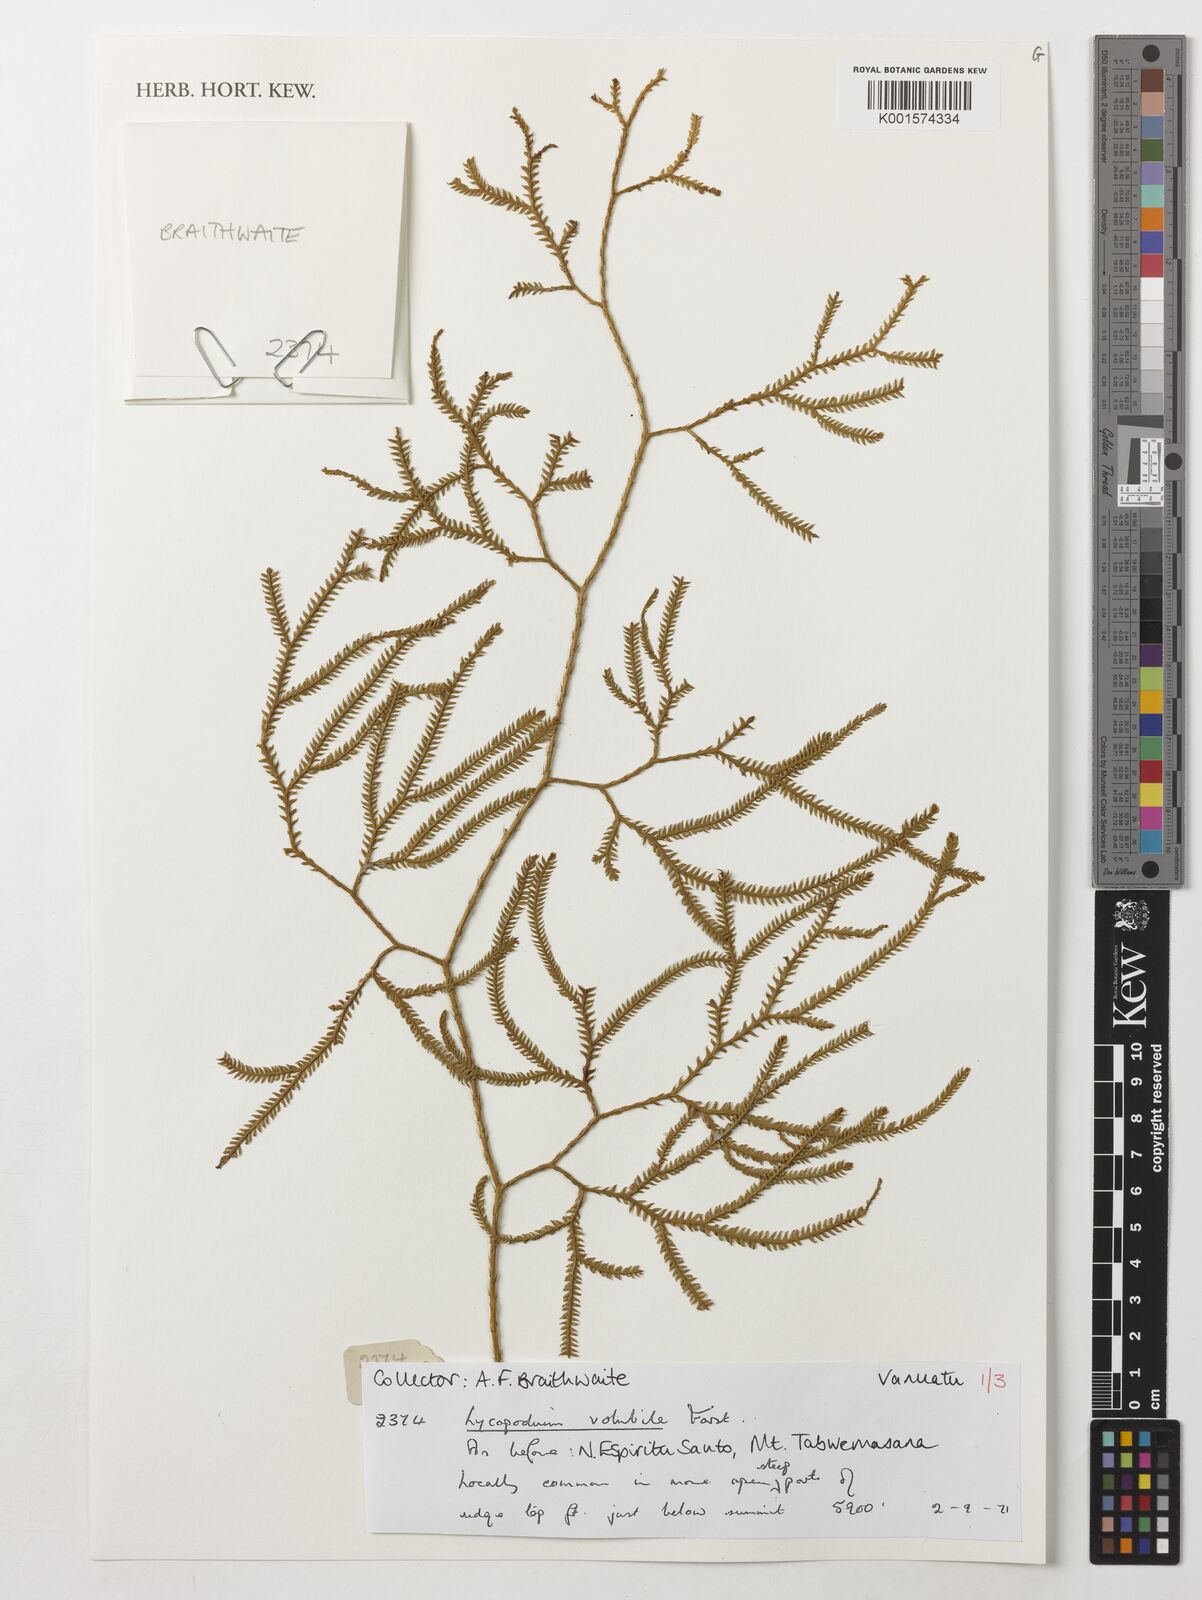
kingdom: Plantae
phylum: Tracheophyta
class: Lycopodiopsida
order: Lycopodiales
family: Lycopodiaceae
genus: Pseudodiphasium
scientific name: Pseudodiphasium volubile
